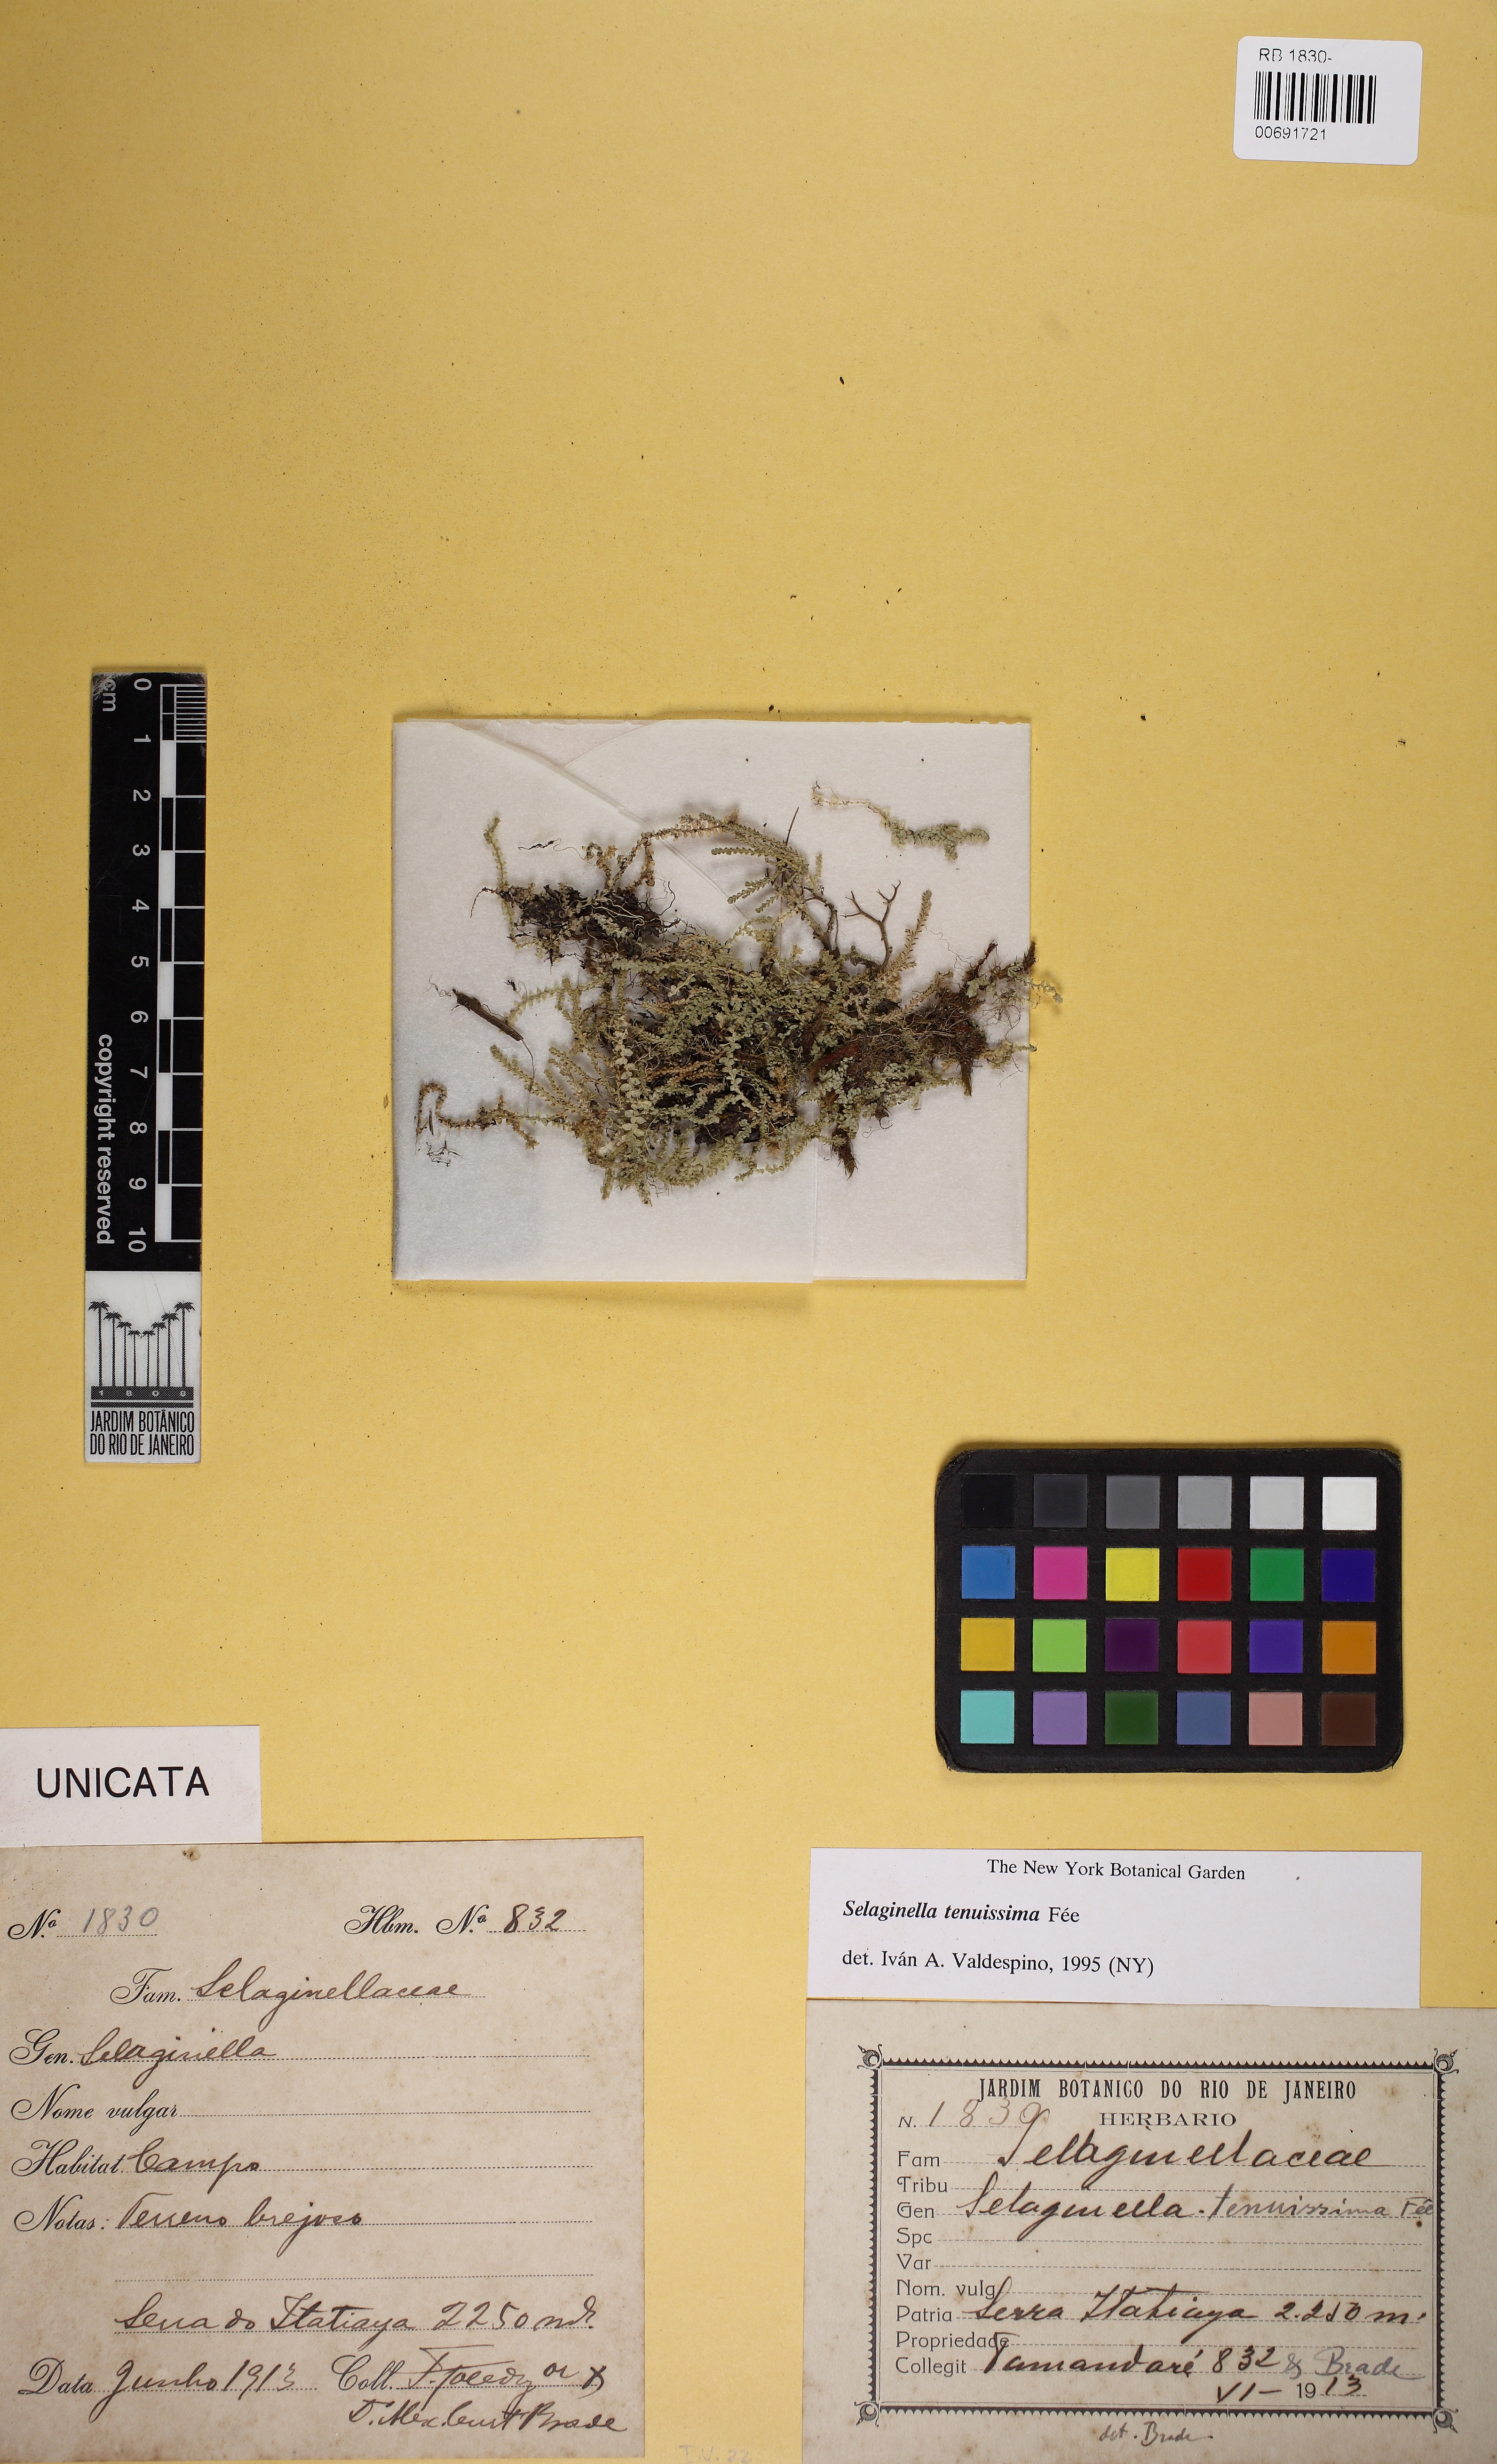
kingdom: Plantae
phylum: Tracheophyta
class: Lycopodiopsida
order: Selaginellales
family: Selaginellaceae
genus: Selaginella
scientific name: Selaginella tenuissima
